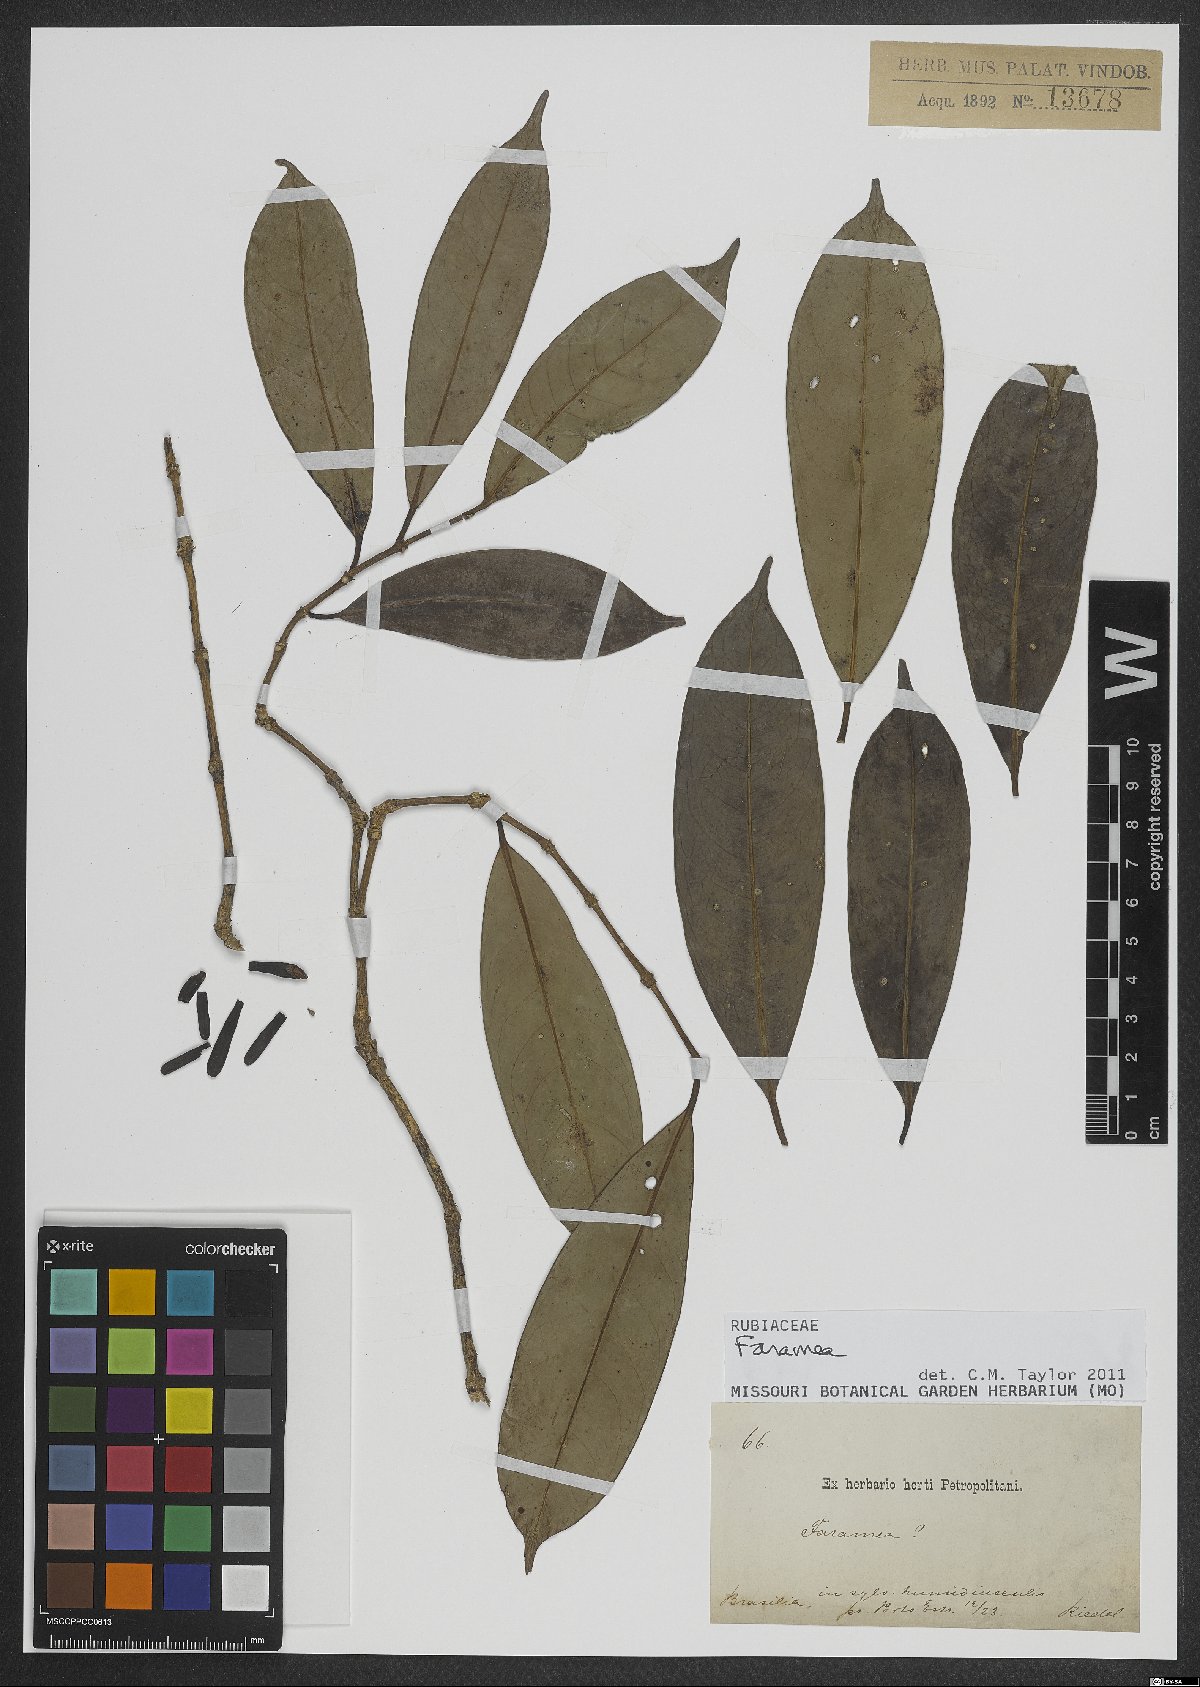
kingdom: Plantae
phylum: Tracheophyta
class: Magnoliopsida
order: Gentianales
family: Rubiaceae
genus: Faramea
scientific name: Faramea
